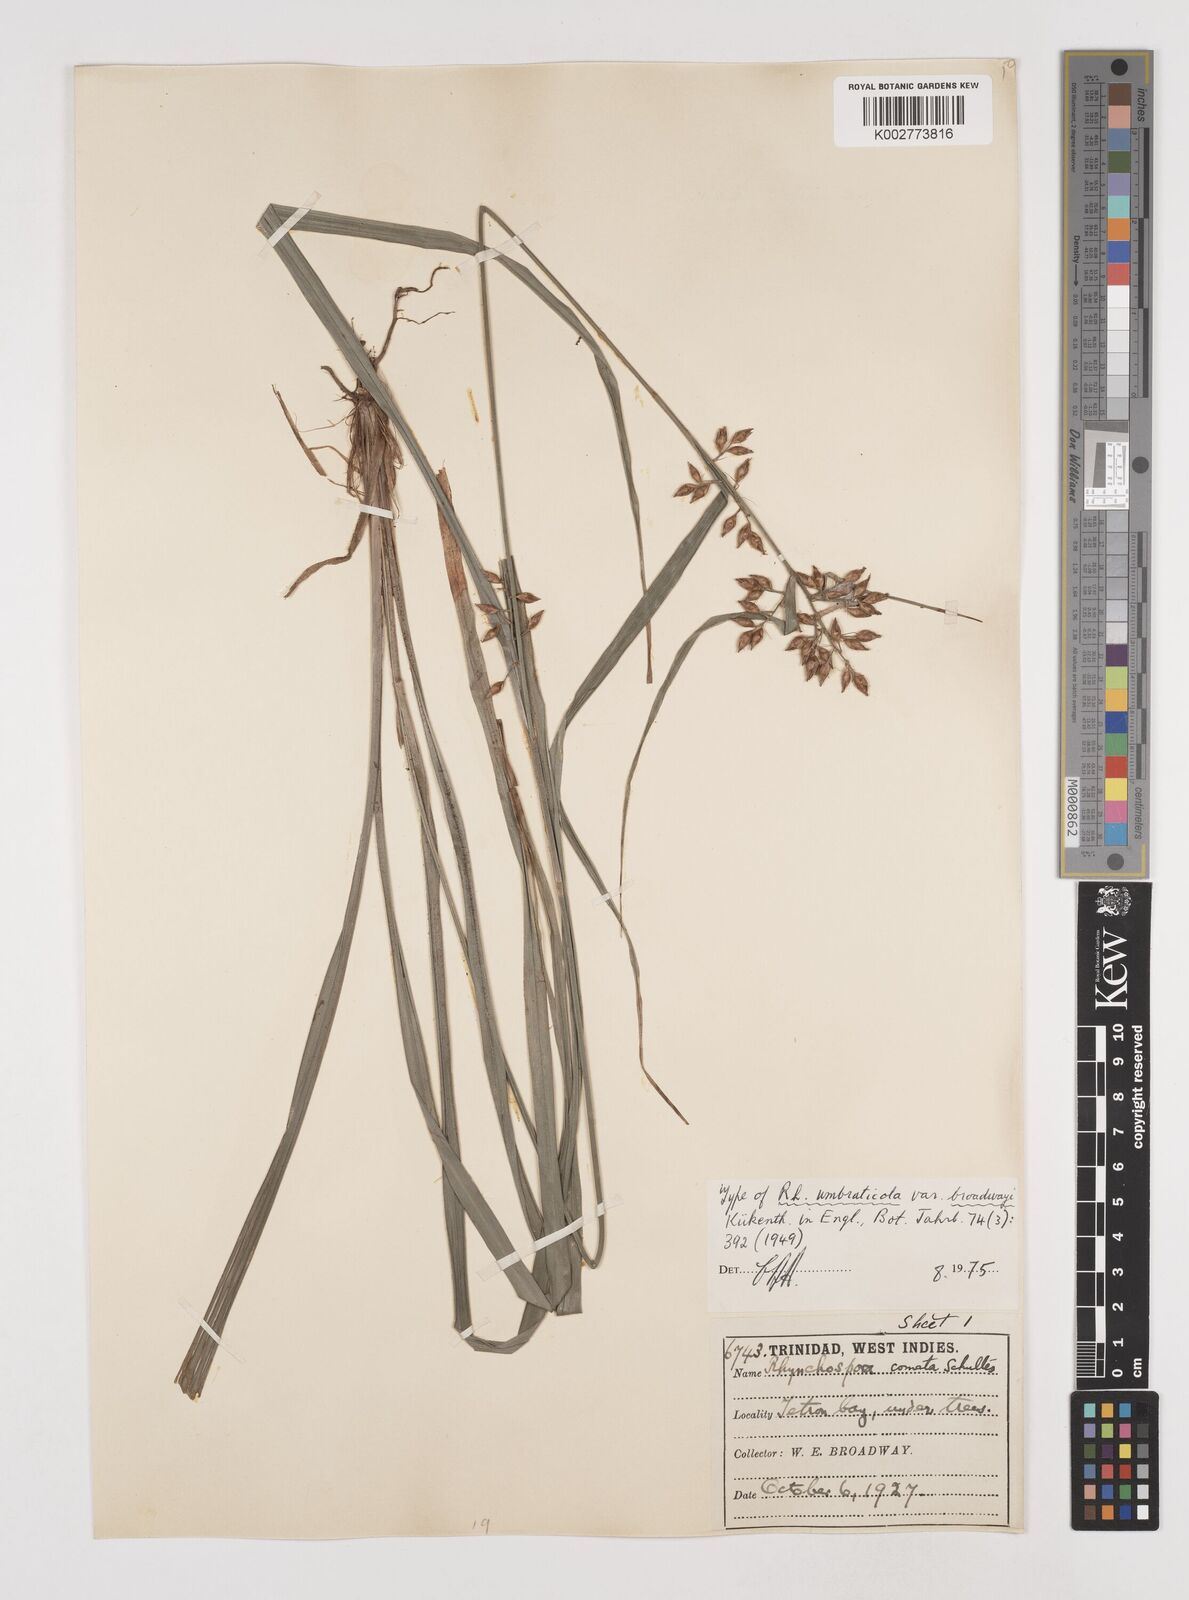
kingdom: Plantae
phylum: Tracheophyta
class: Liliopsida
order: Poales
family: Cyperaceae
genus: Rhynchospora
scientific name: Rhynchospora comata
